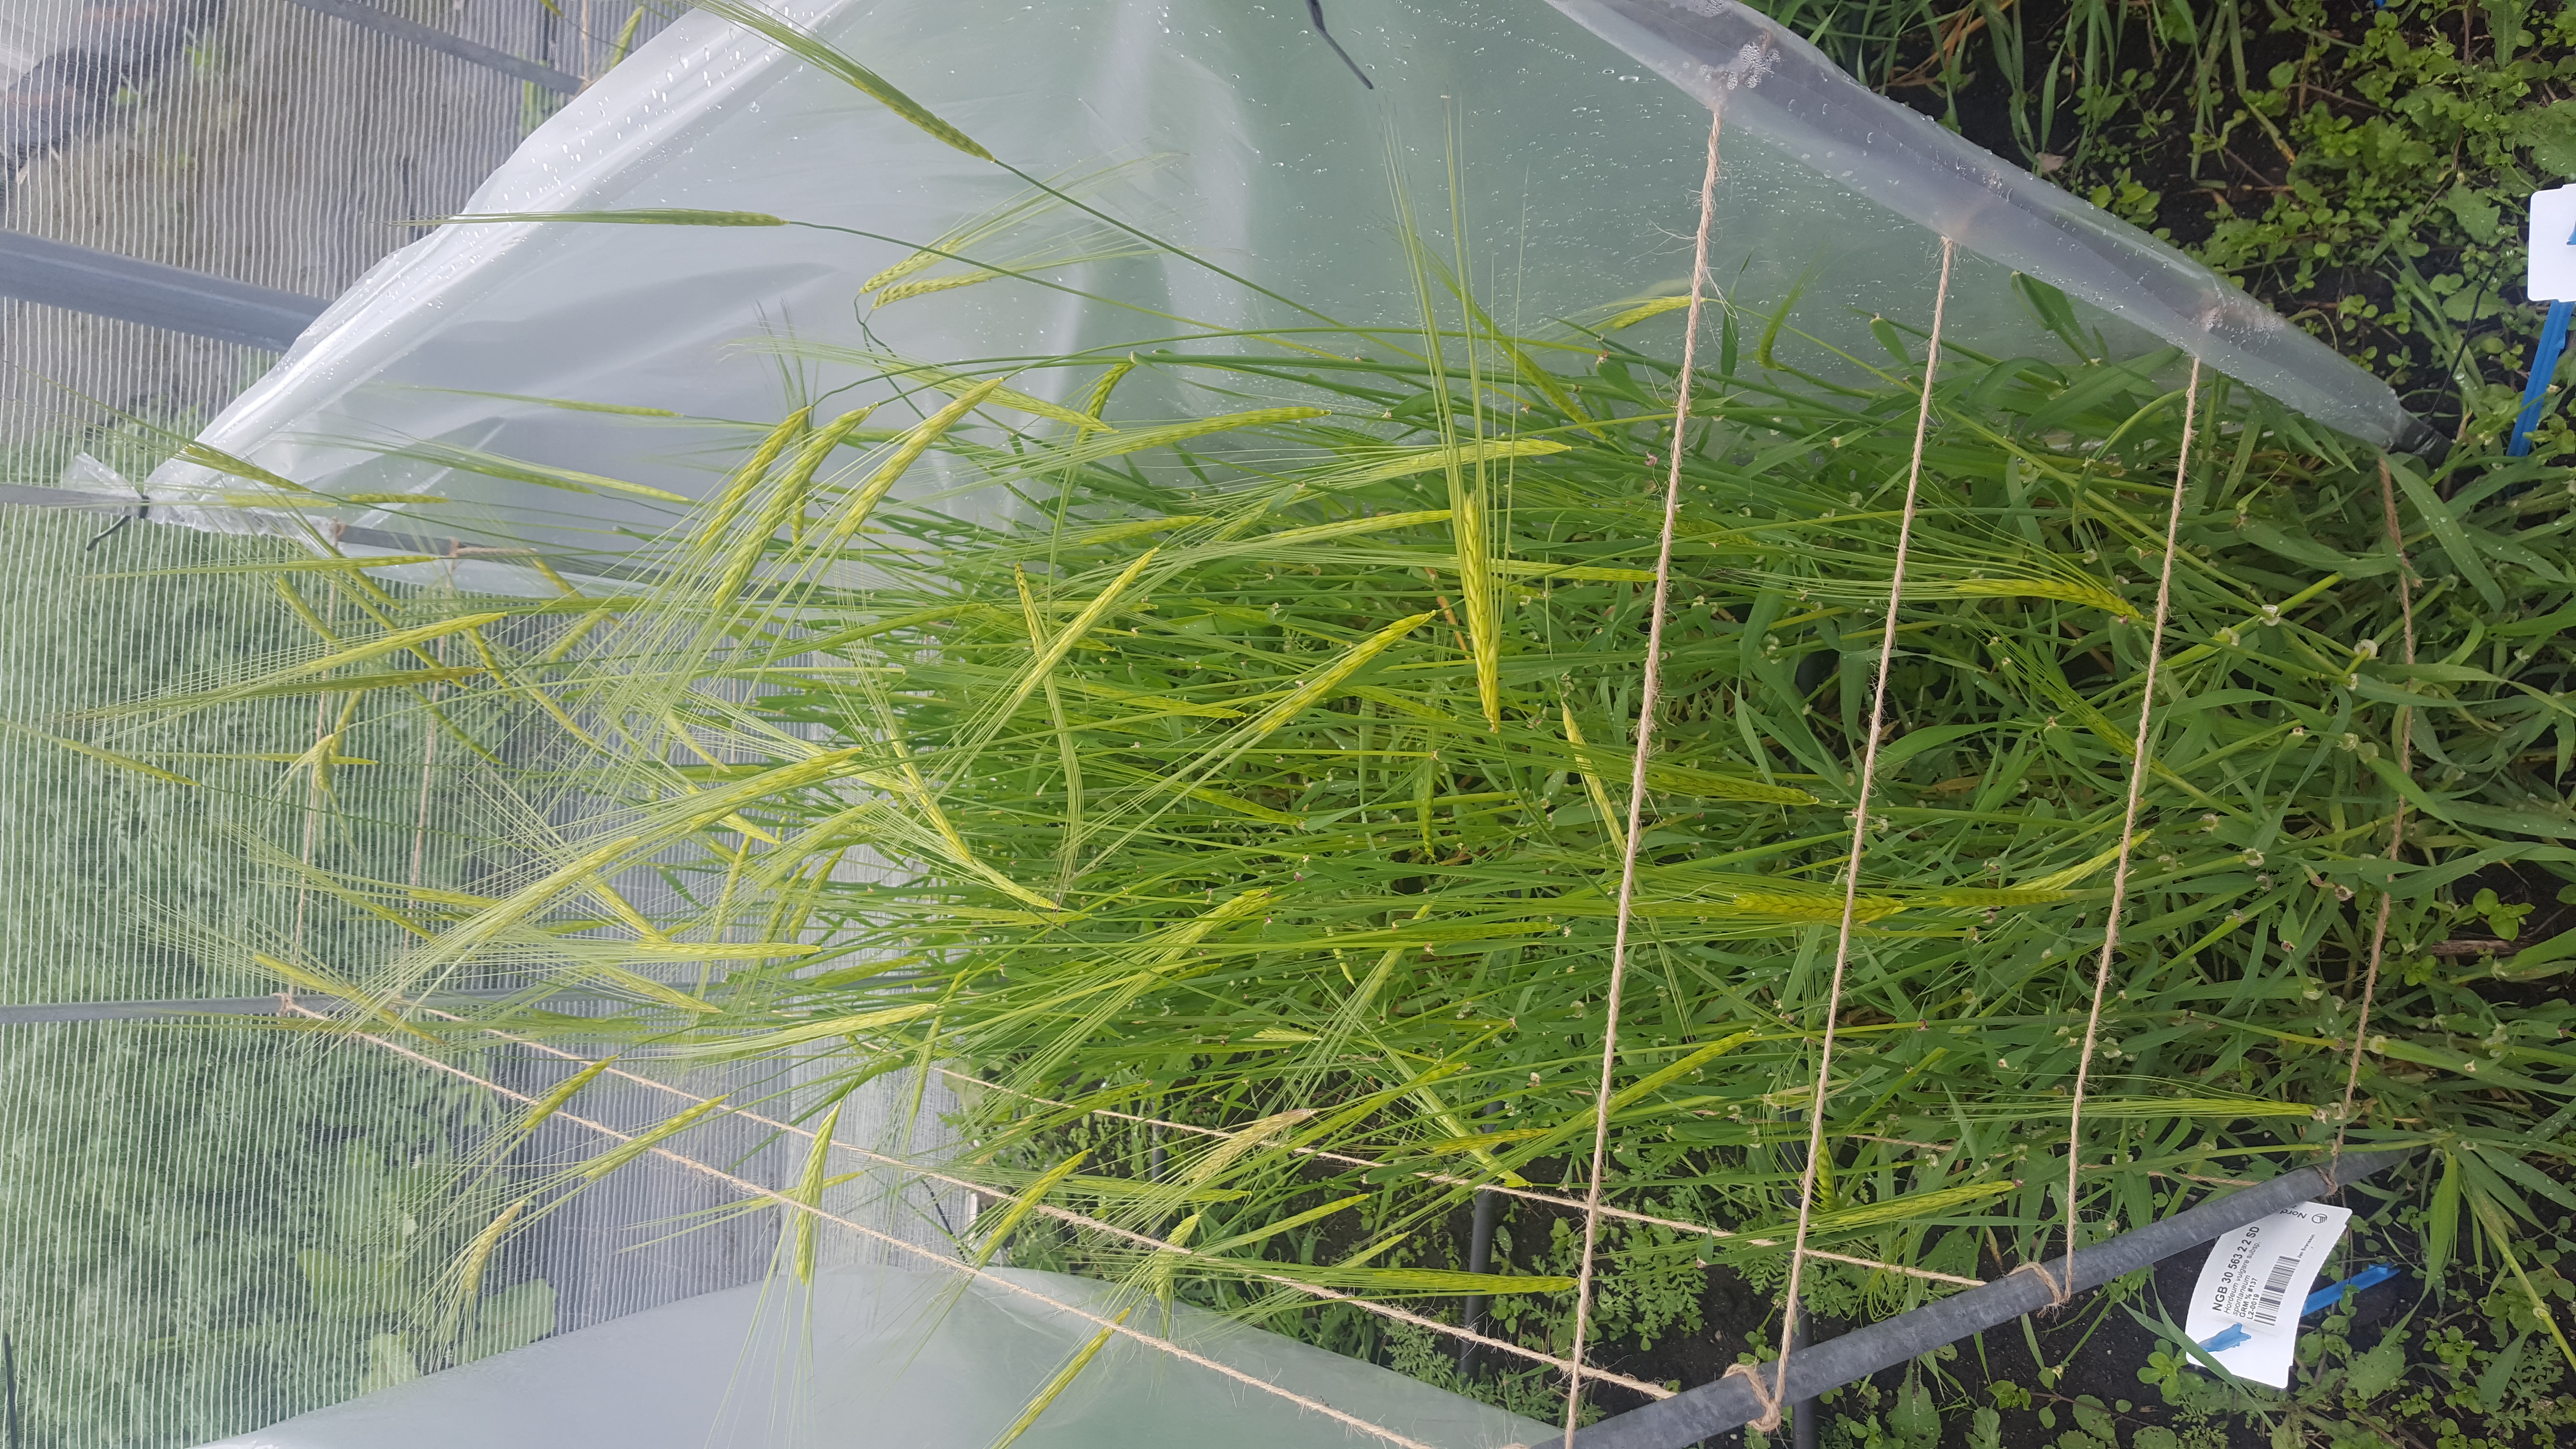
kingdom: Plantae
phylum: Tracheophyta
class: Liliopsida
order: Poales
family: Poaceae
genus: Hordeum
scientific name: Hordeum spontaneum
